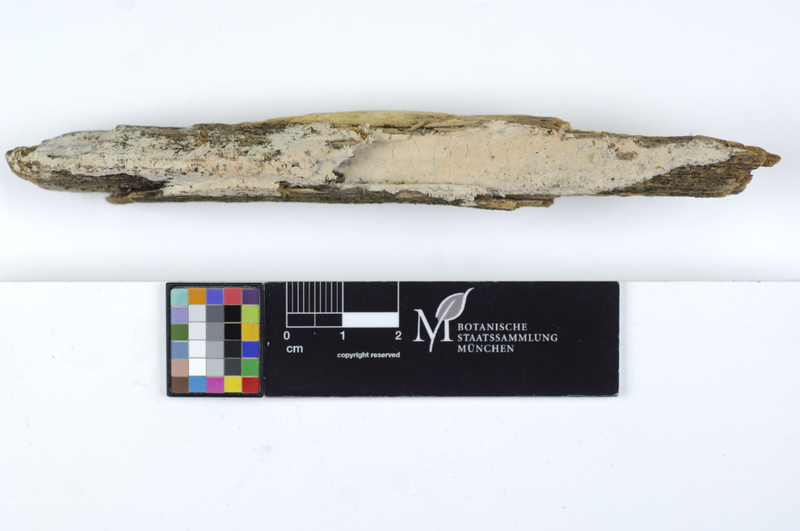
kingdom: Fungi
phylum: Basidiomycota
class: Agaricomycetes
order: Amylocorticiales
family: Amylocorticiaceae
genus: Ceraceomyces
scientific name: Ceraceomyces eludens
